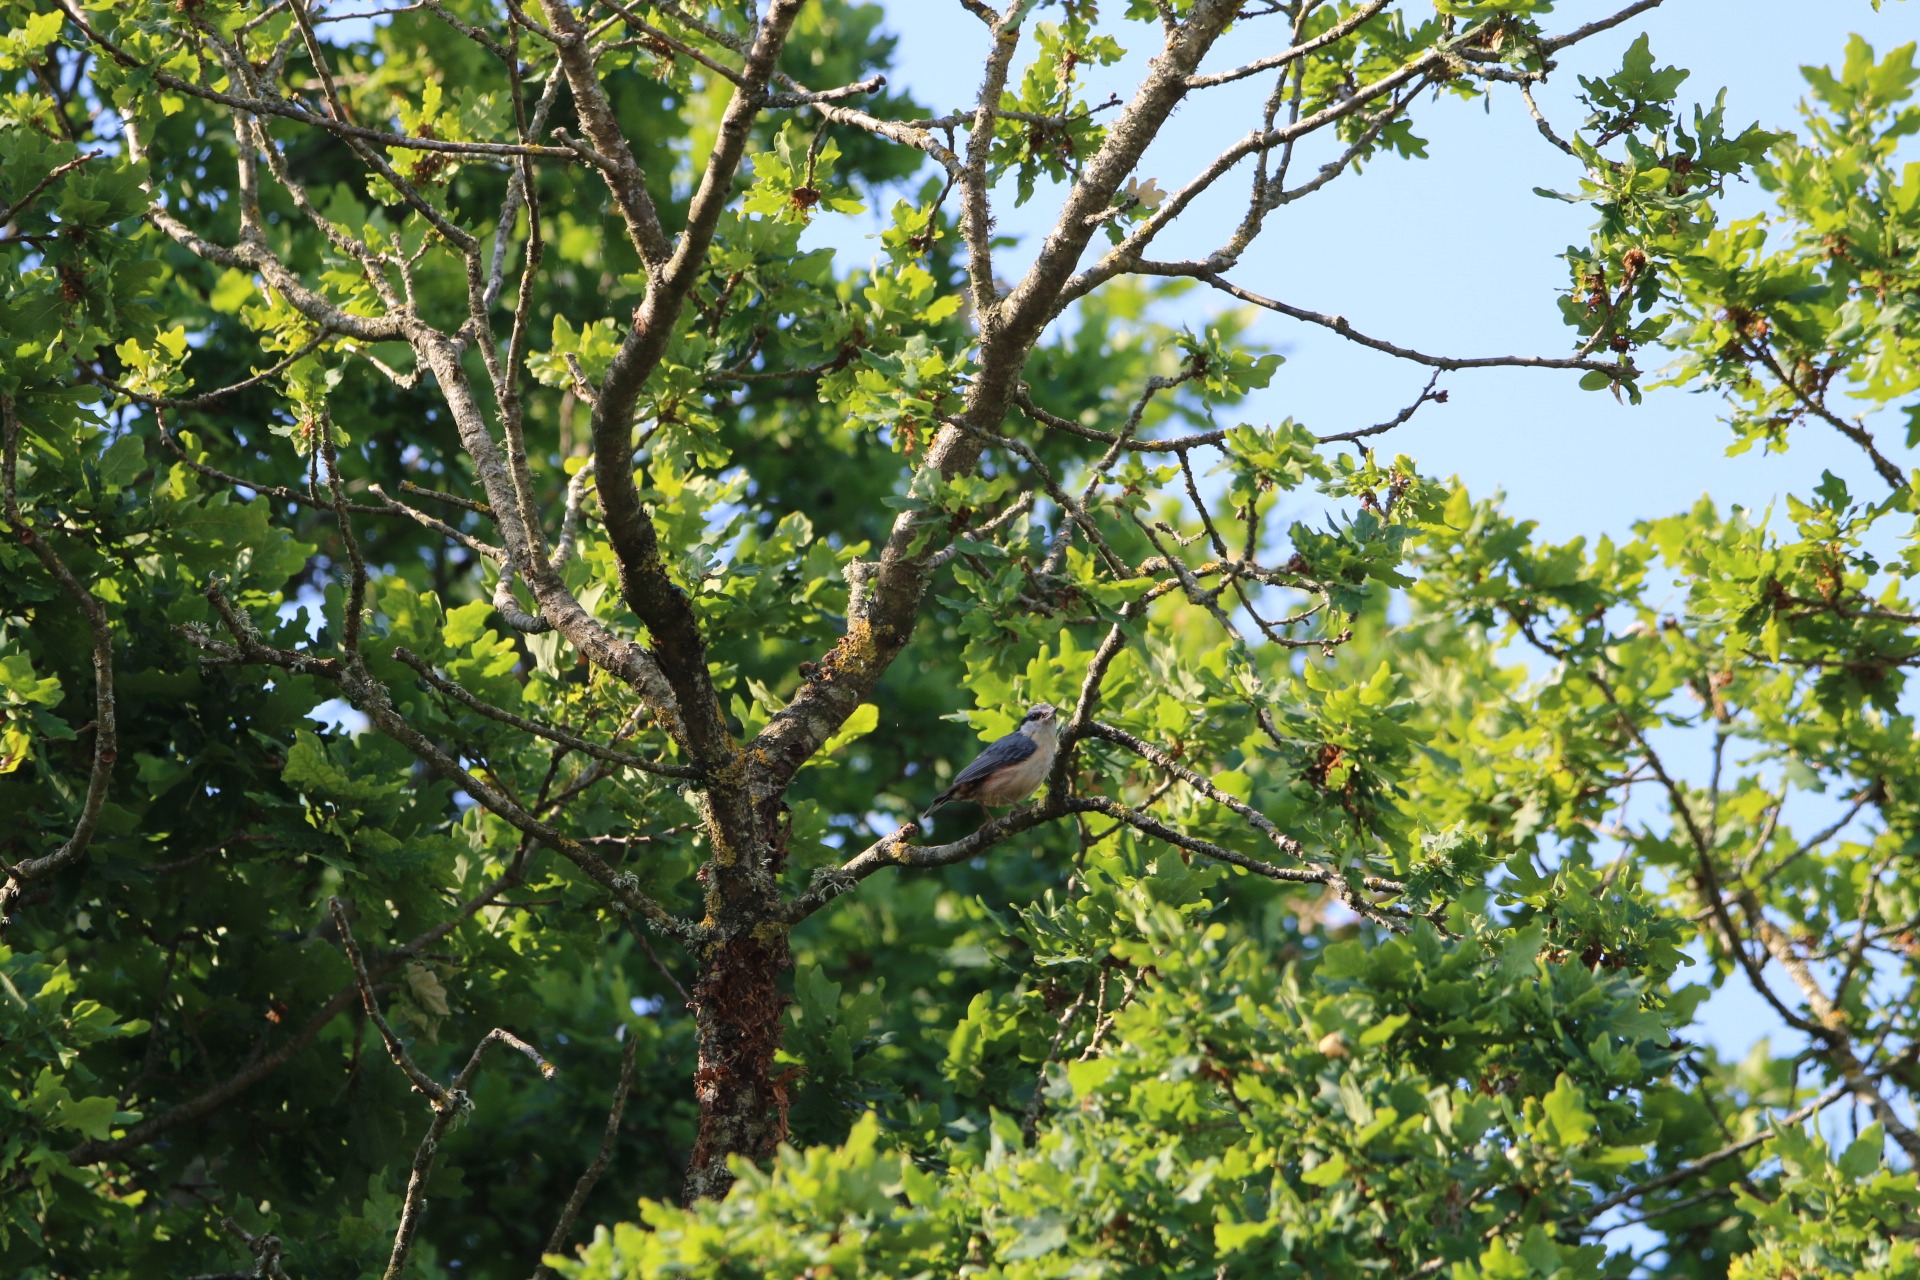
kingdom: Animalia
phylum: Chordata
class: Aves
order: Passeriformes
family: Sittidae
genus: Sitta
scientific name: Sitta europaea
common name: Spætmejse
